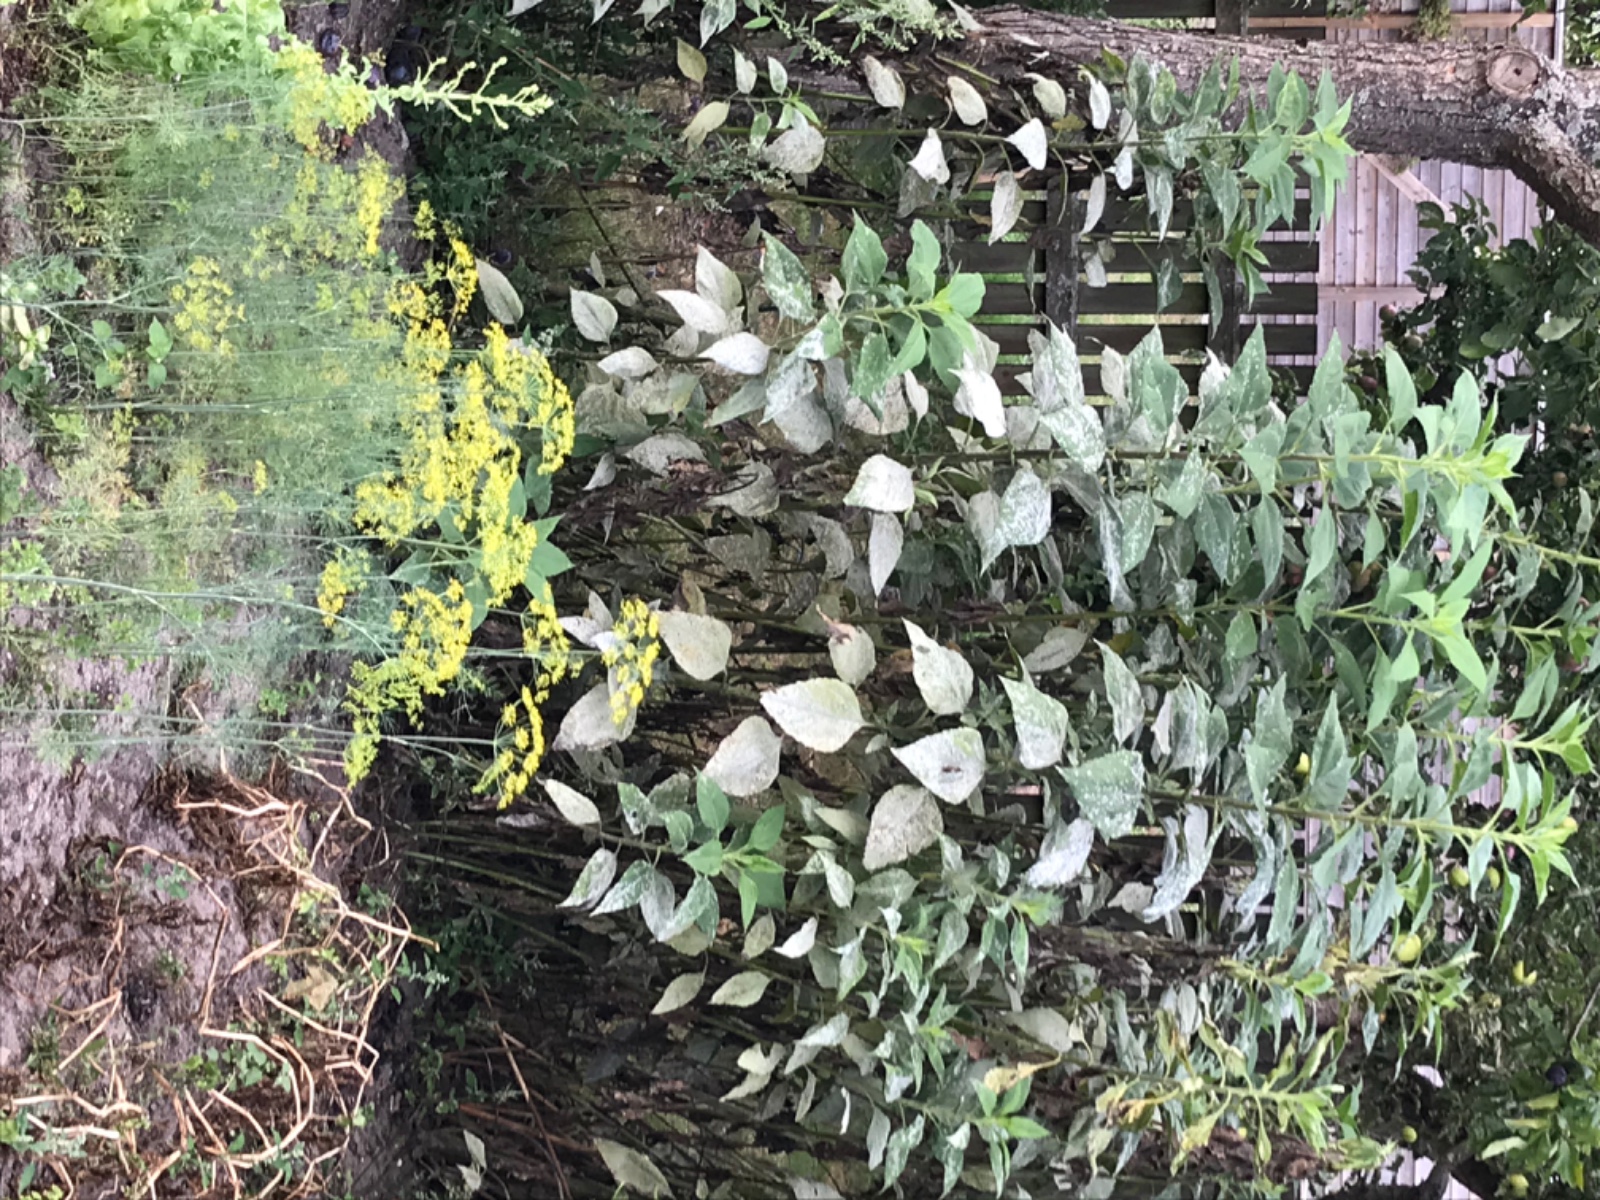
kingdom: Fungi
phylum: Ascomycota
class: Leotiomycetes
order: Helotiales
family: Erysiphaceae
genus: Golovinomyces
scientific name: Golovinomyces ambrosiae
